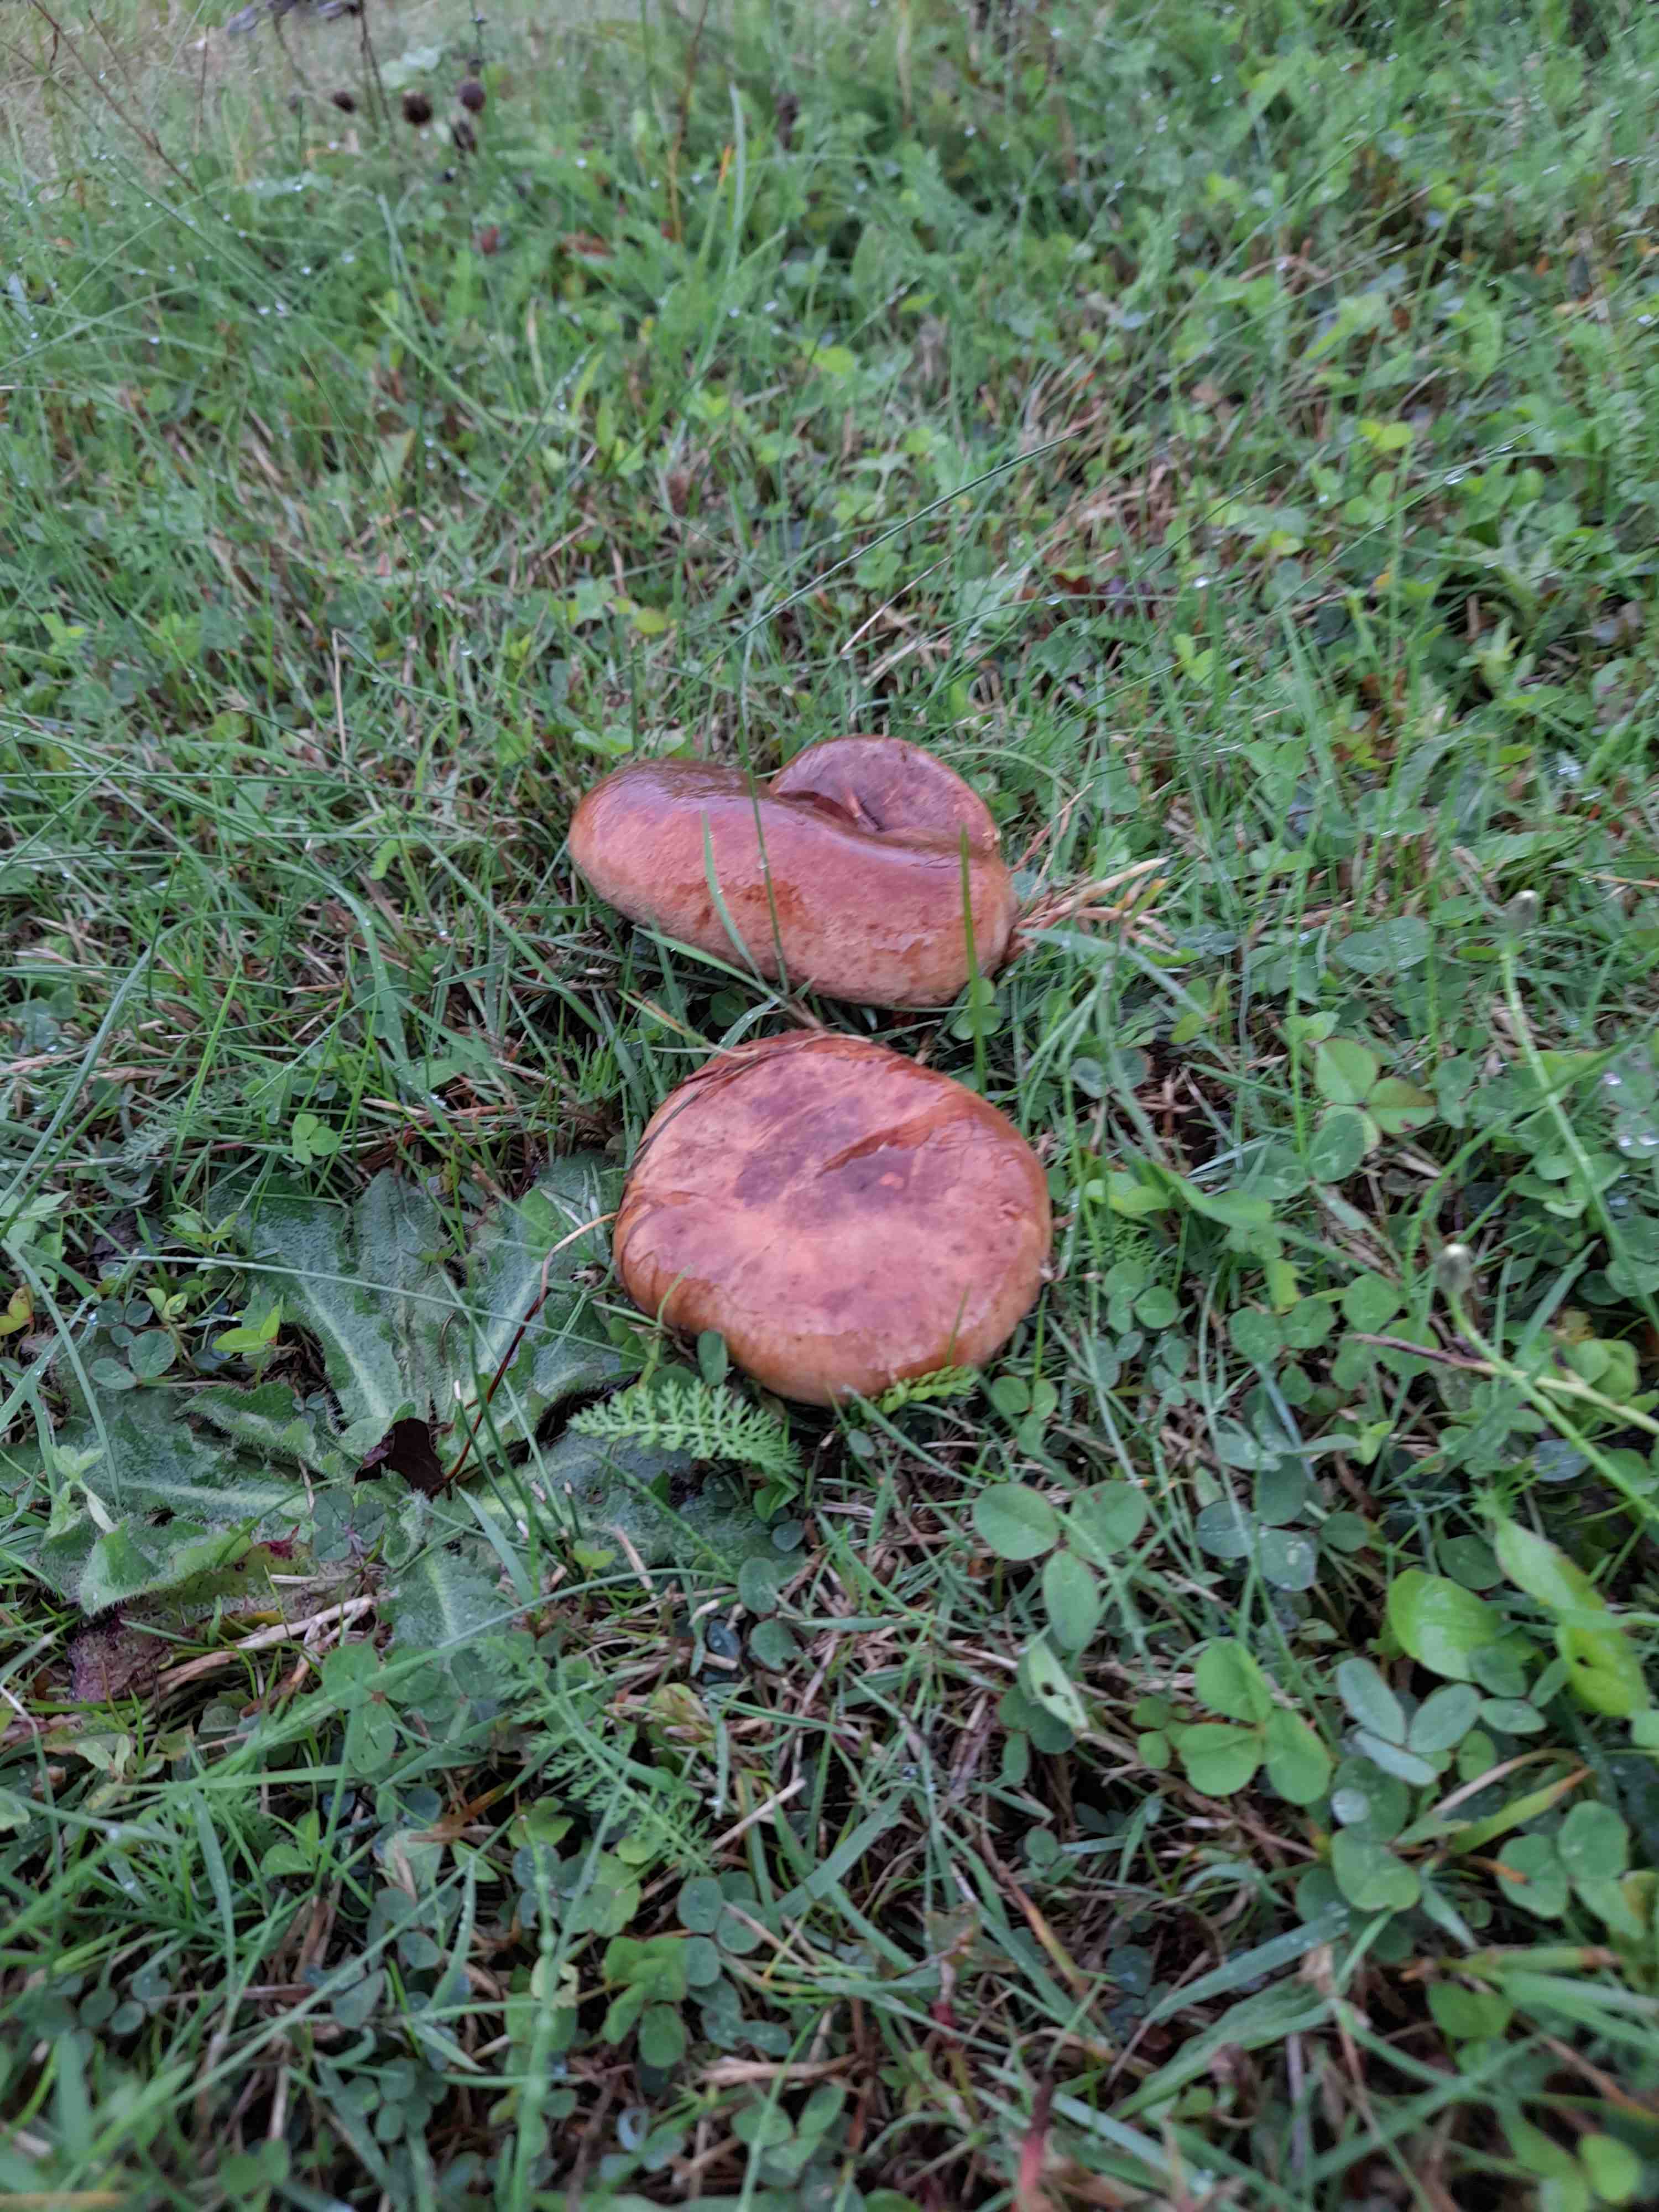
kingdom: Fungi
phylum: Basidiomycota
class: Agaricomycetes
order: Boletales
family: Paxillaceae
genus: Paxillus
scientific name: Paxillus
